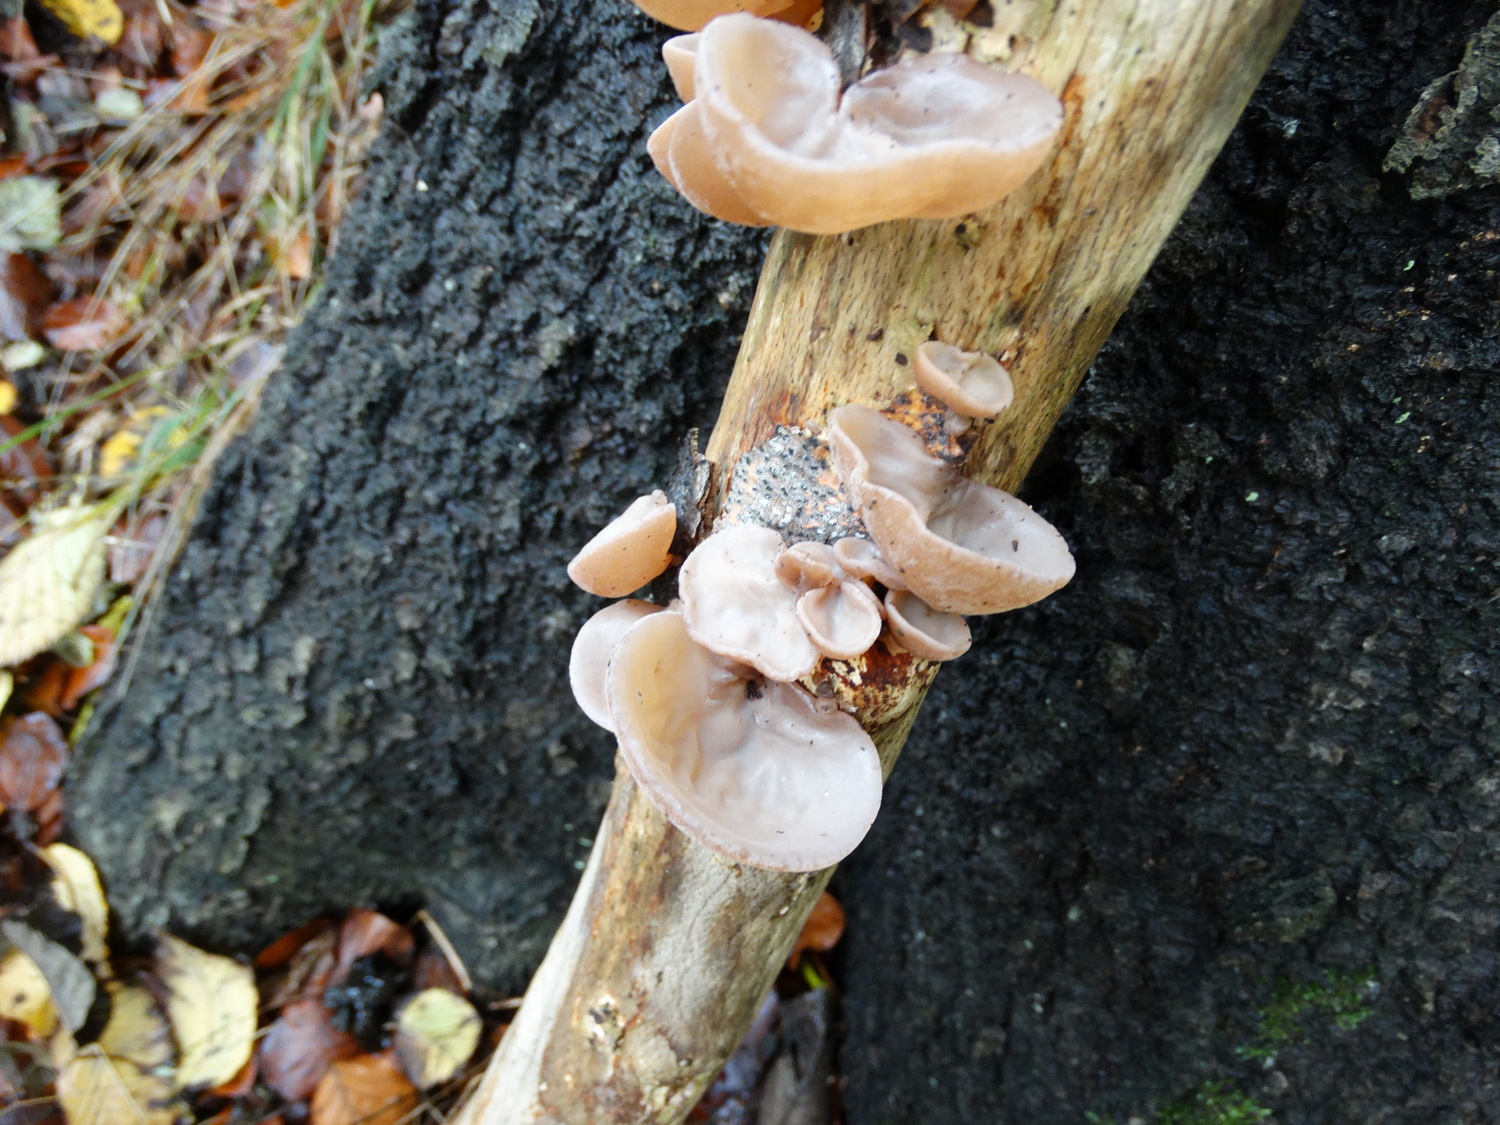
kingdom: Fungi
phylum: Basidiomycota
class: Agaricomycetes
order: Auriculariales
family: Auriculariaceae
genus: Auricularia
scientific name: Auricularia auricula-judae
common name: almindelig judasøre
